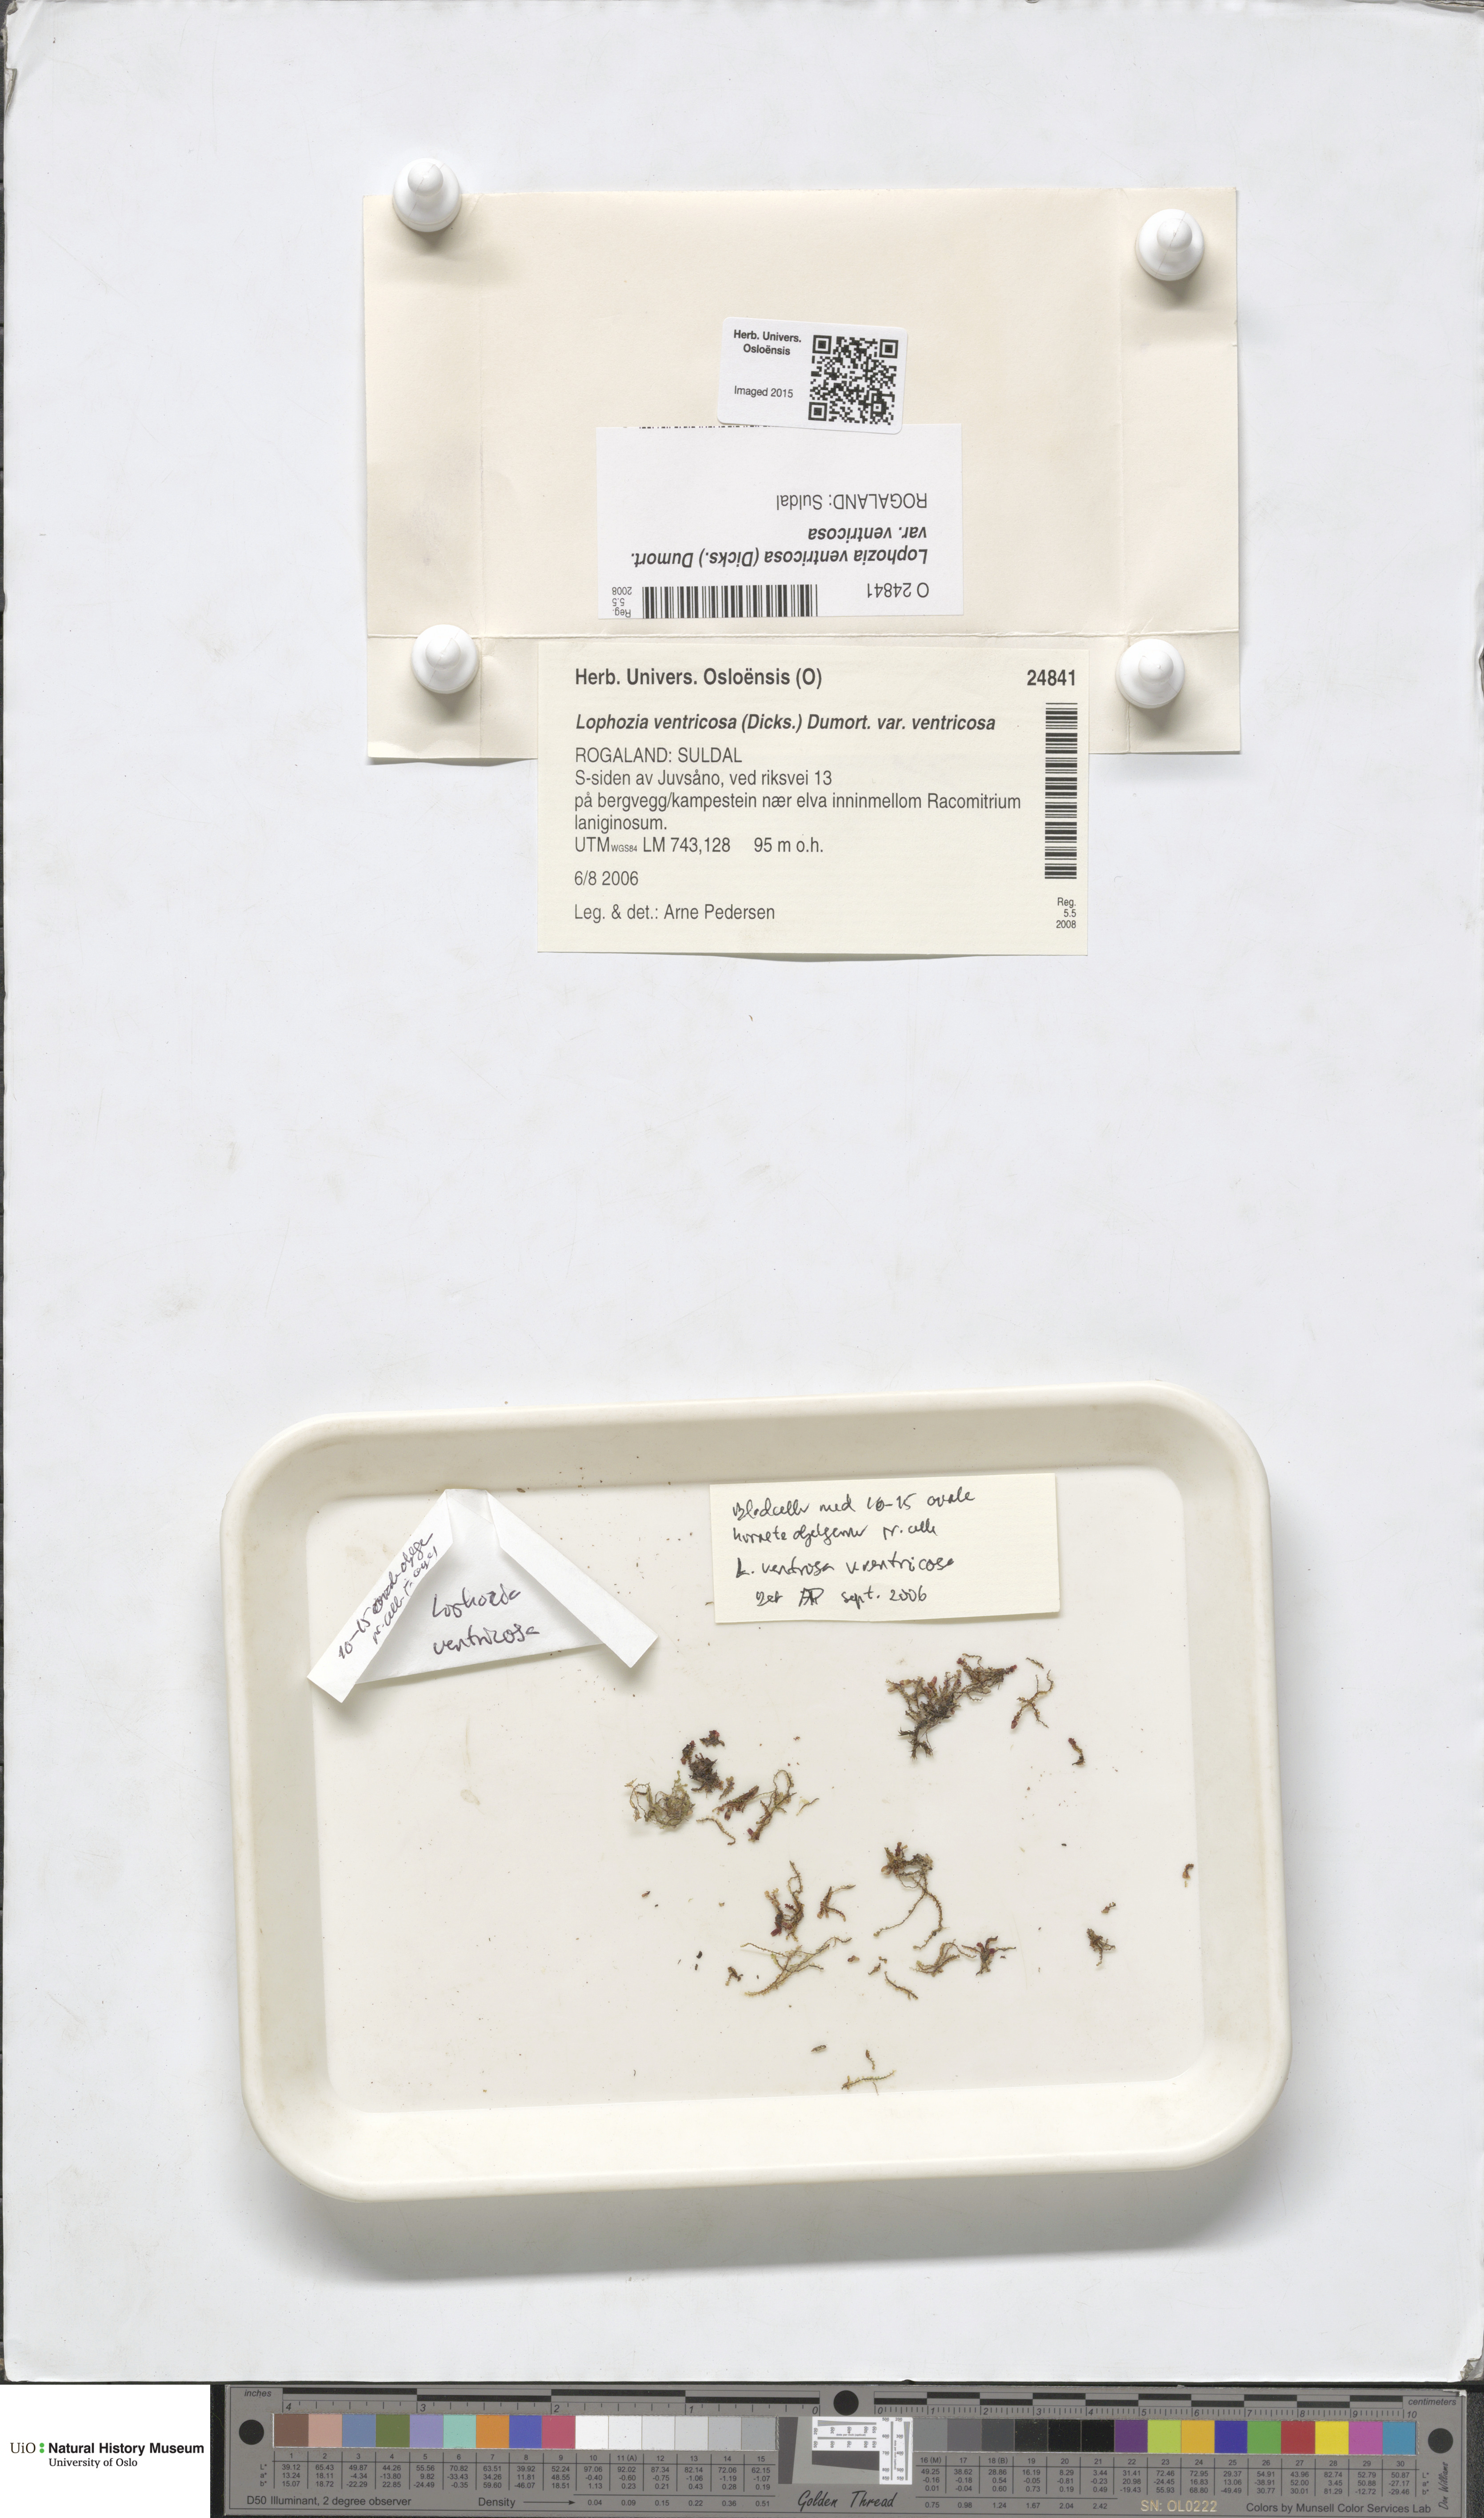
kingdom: Plantae
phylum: Marchantiophyta
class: Jungermanniopsida
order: Jungermanniales
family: Lophoziaceae
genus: Lophozia
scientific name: Lophozia ventricosa
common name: Tumid notchwort
